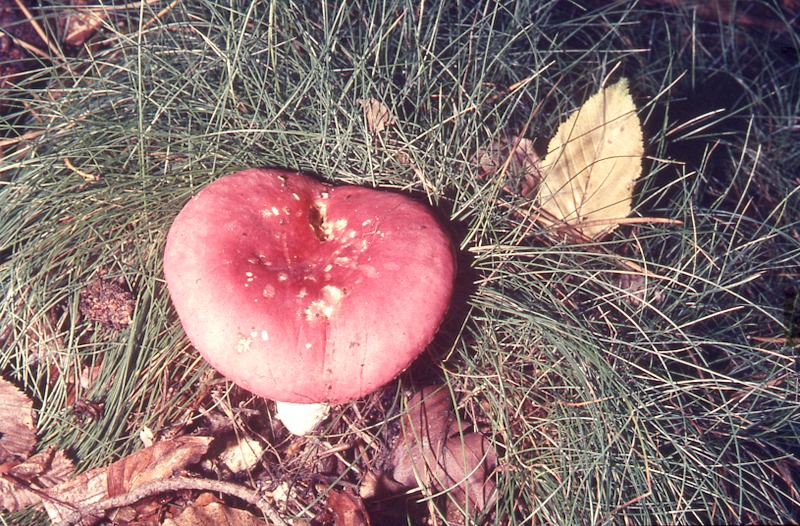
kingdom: Fungi
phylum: Basidiomycota
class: Agaricomycetes
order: Russulales
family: Russulaceae
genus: Russula
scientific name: Russula rosea
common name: Rosy brittlegill
